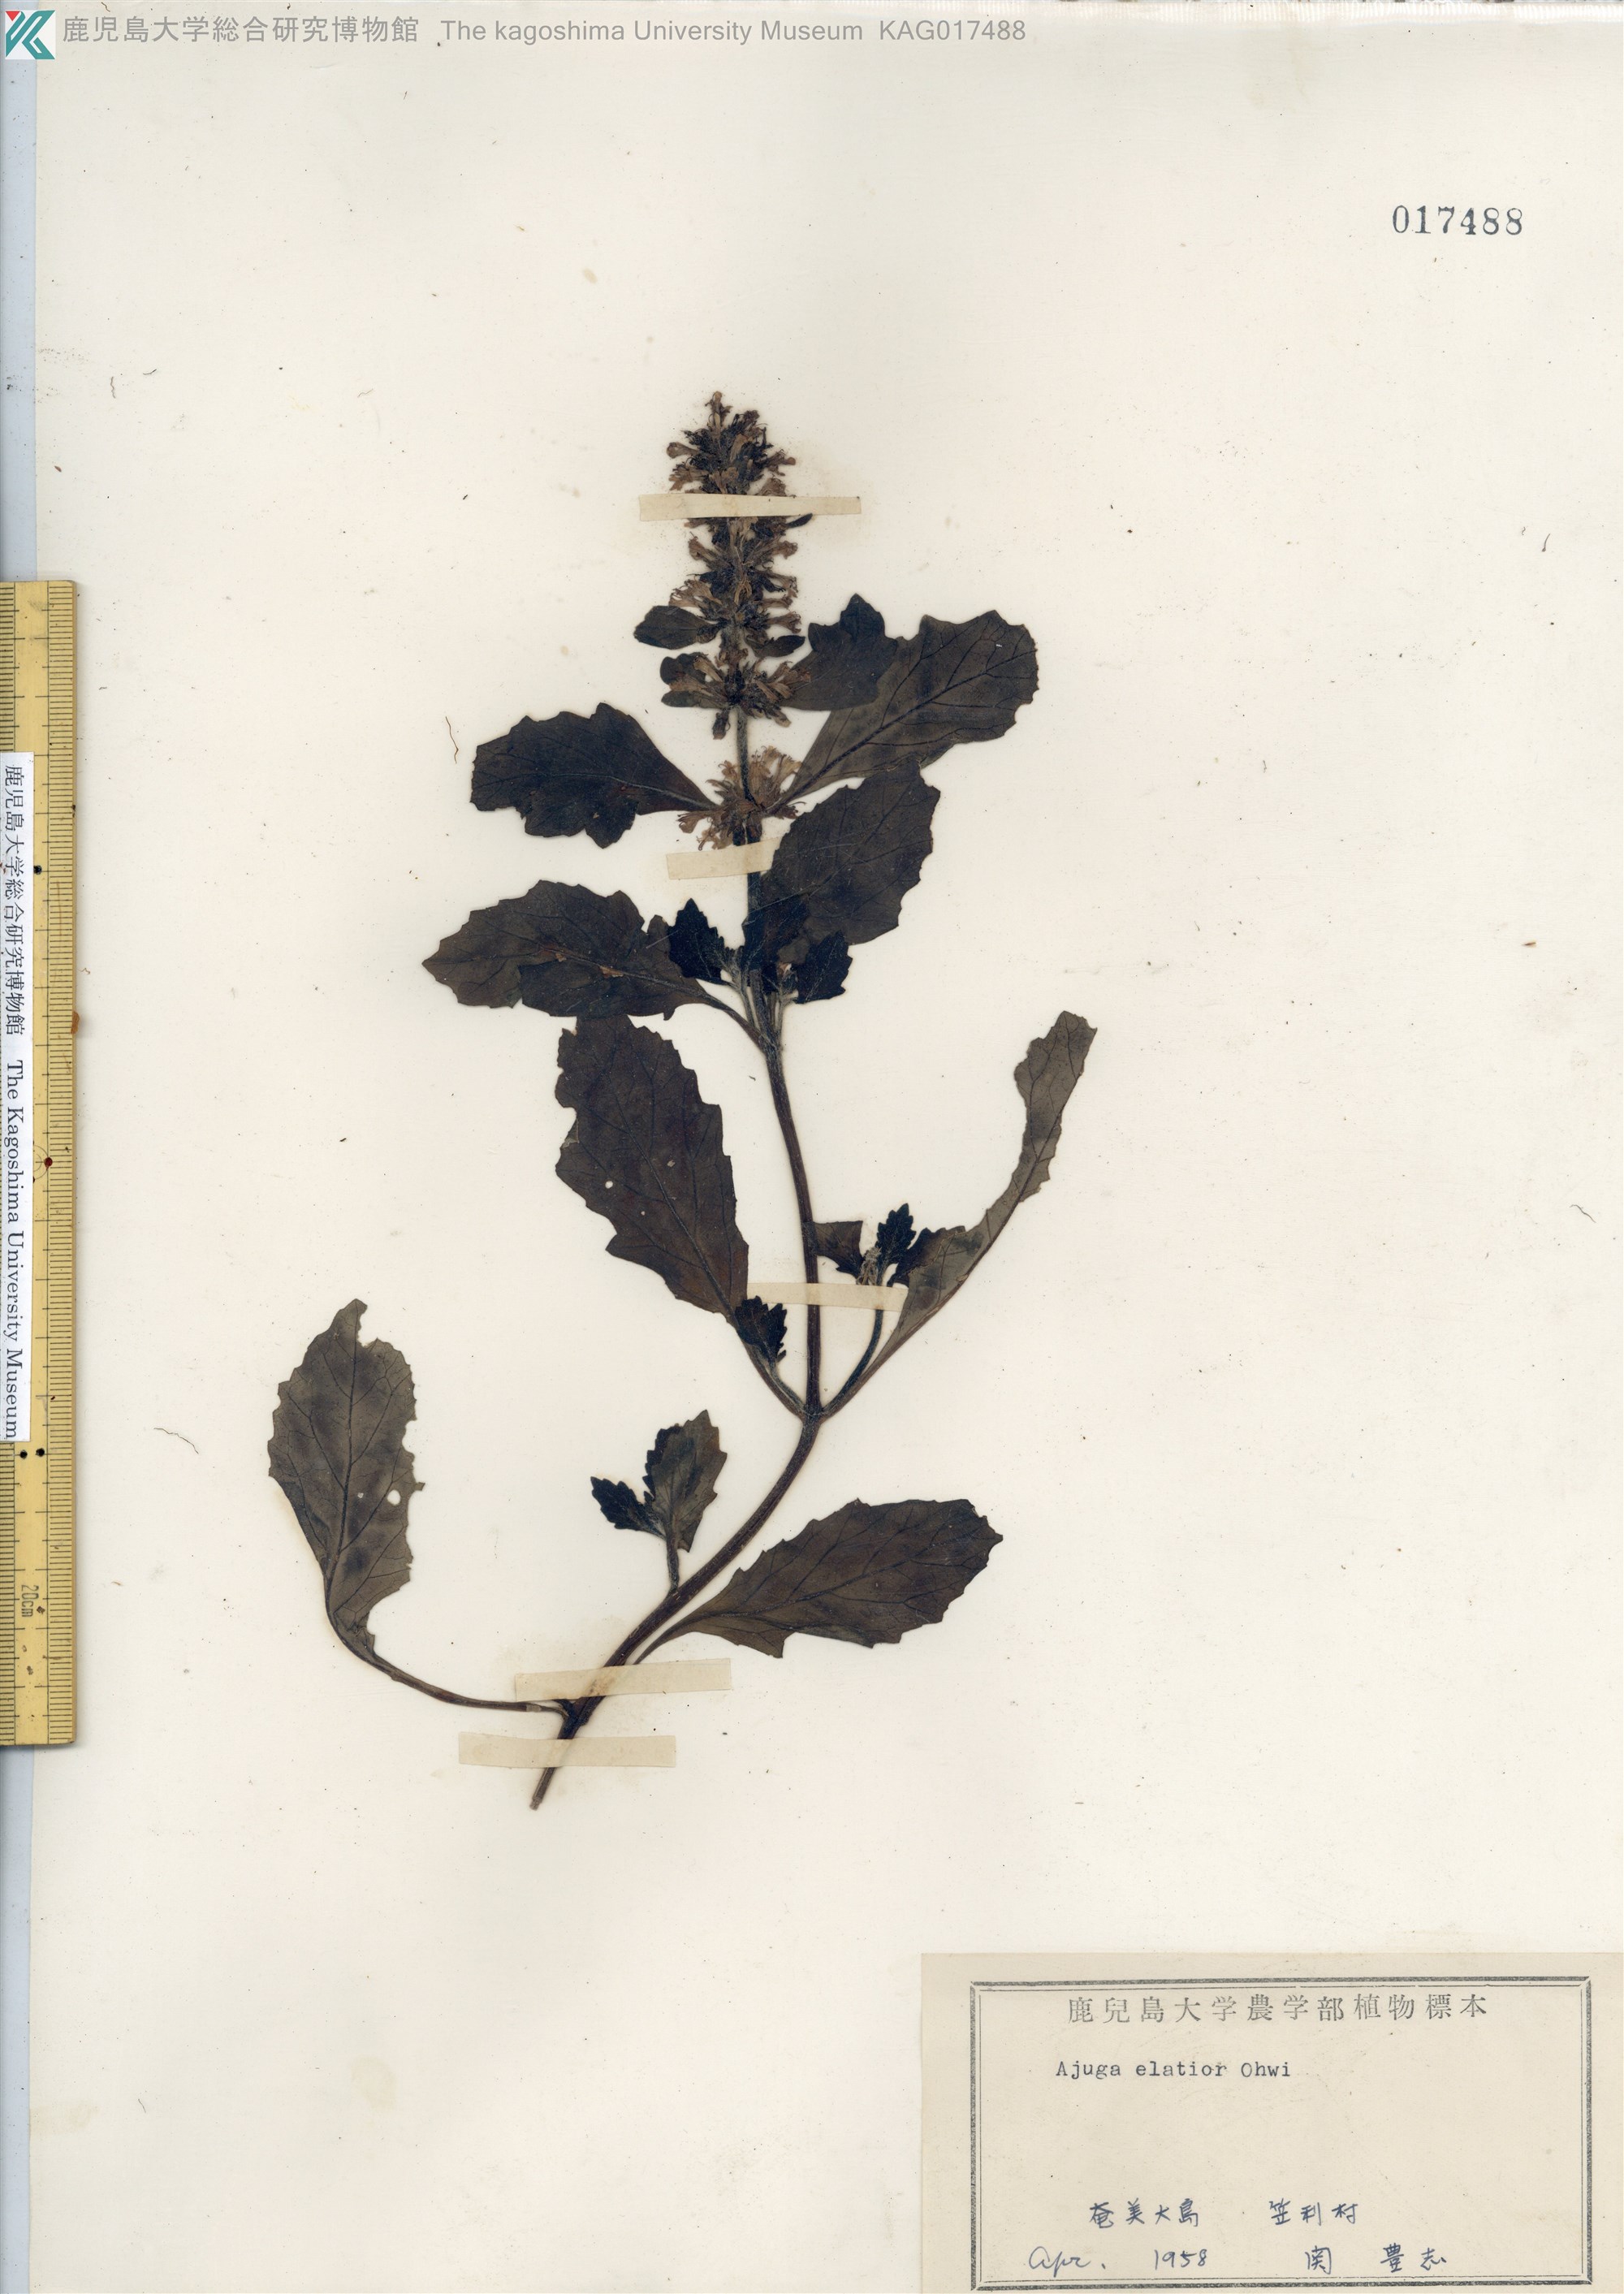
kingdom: Plantae
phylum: Tracheophyta
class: Magnoliopsida
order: Lamiales
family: Lamiaceae
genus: Ajuga
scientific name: Ajuga dictyocarpa
